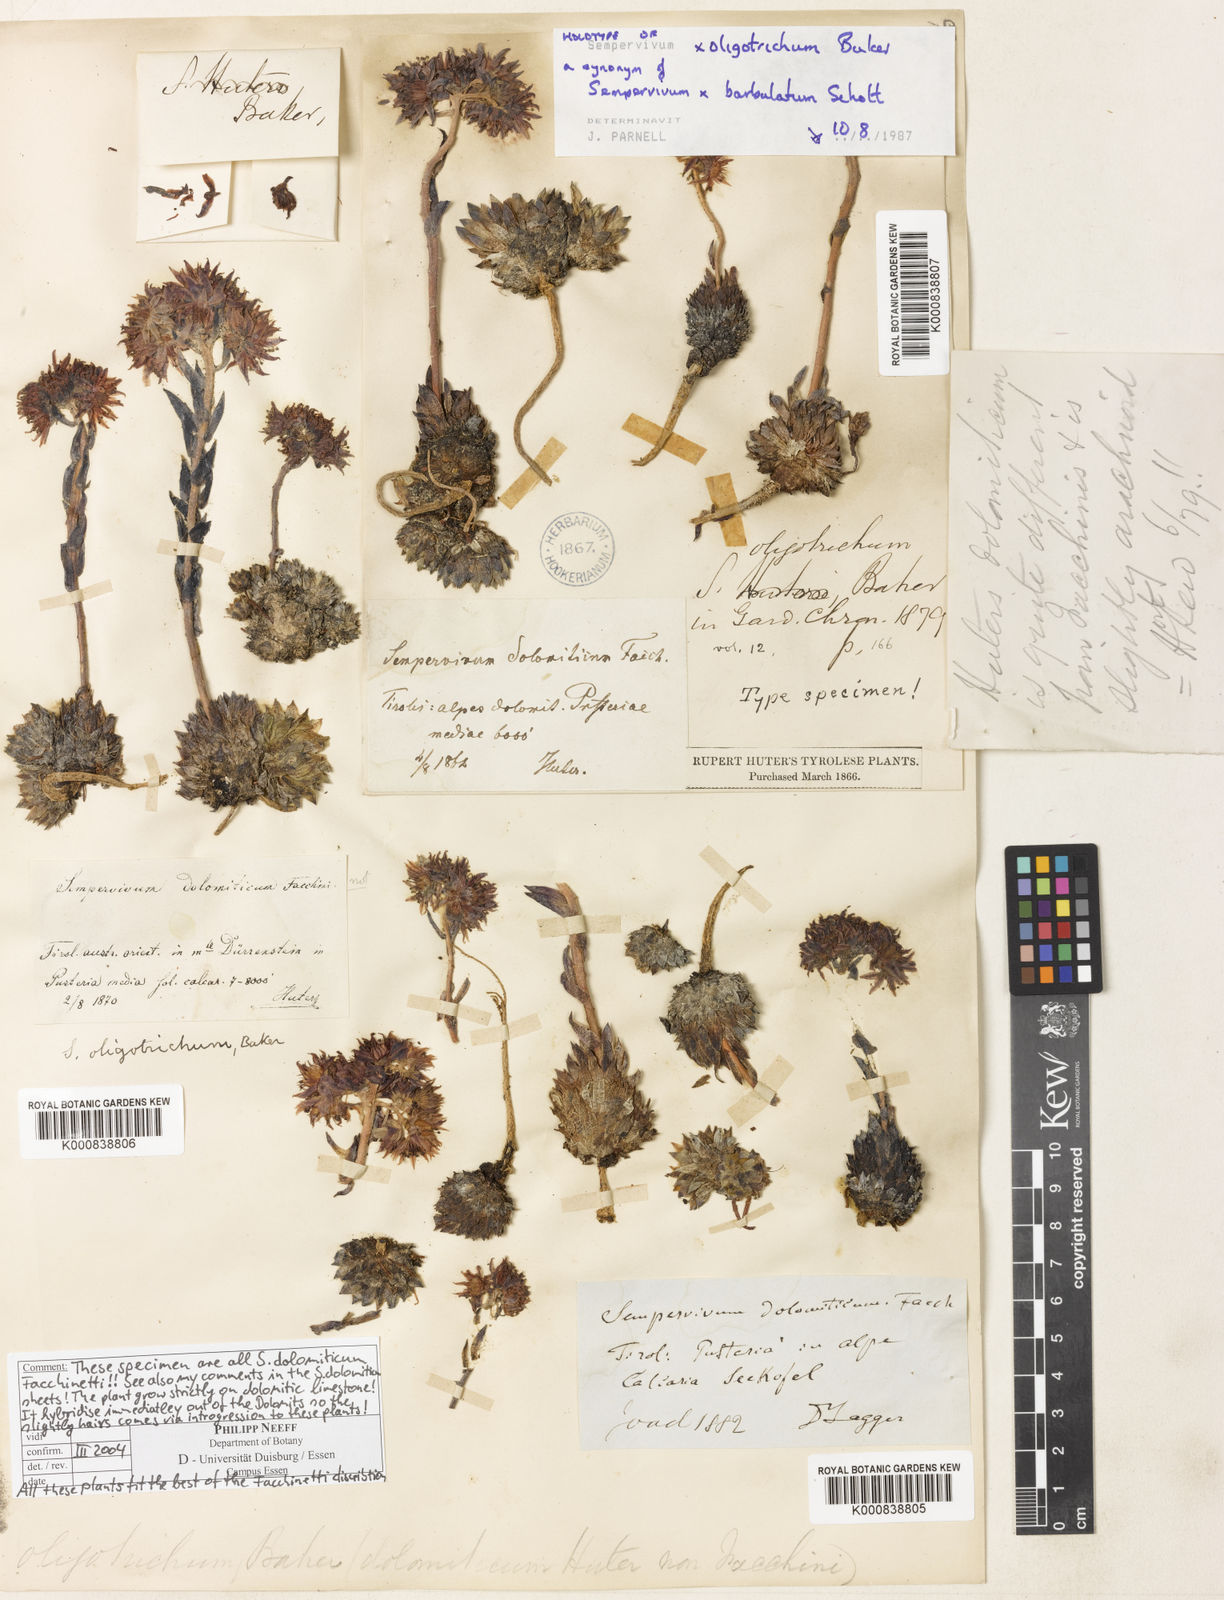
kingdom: Plantae
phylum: Tracheophyta
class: Magnoliopsida
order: Saxifragales
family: Crassulaceae
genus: Sempervivum
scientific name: Sempervivum dolomiticum
